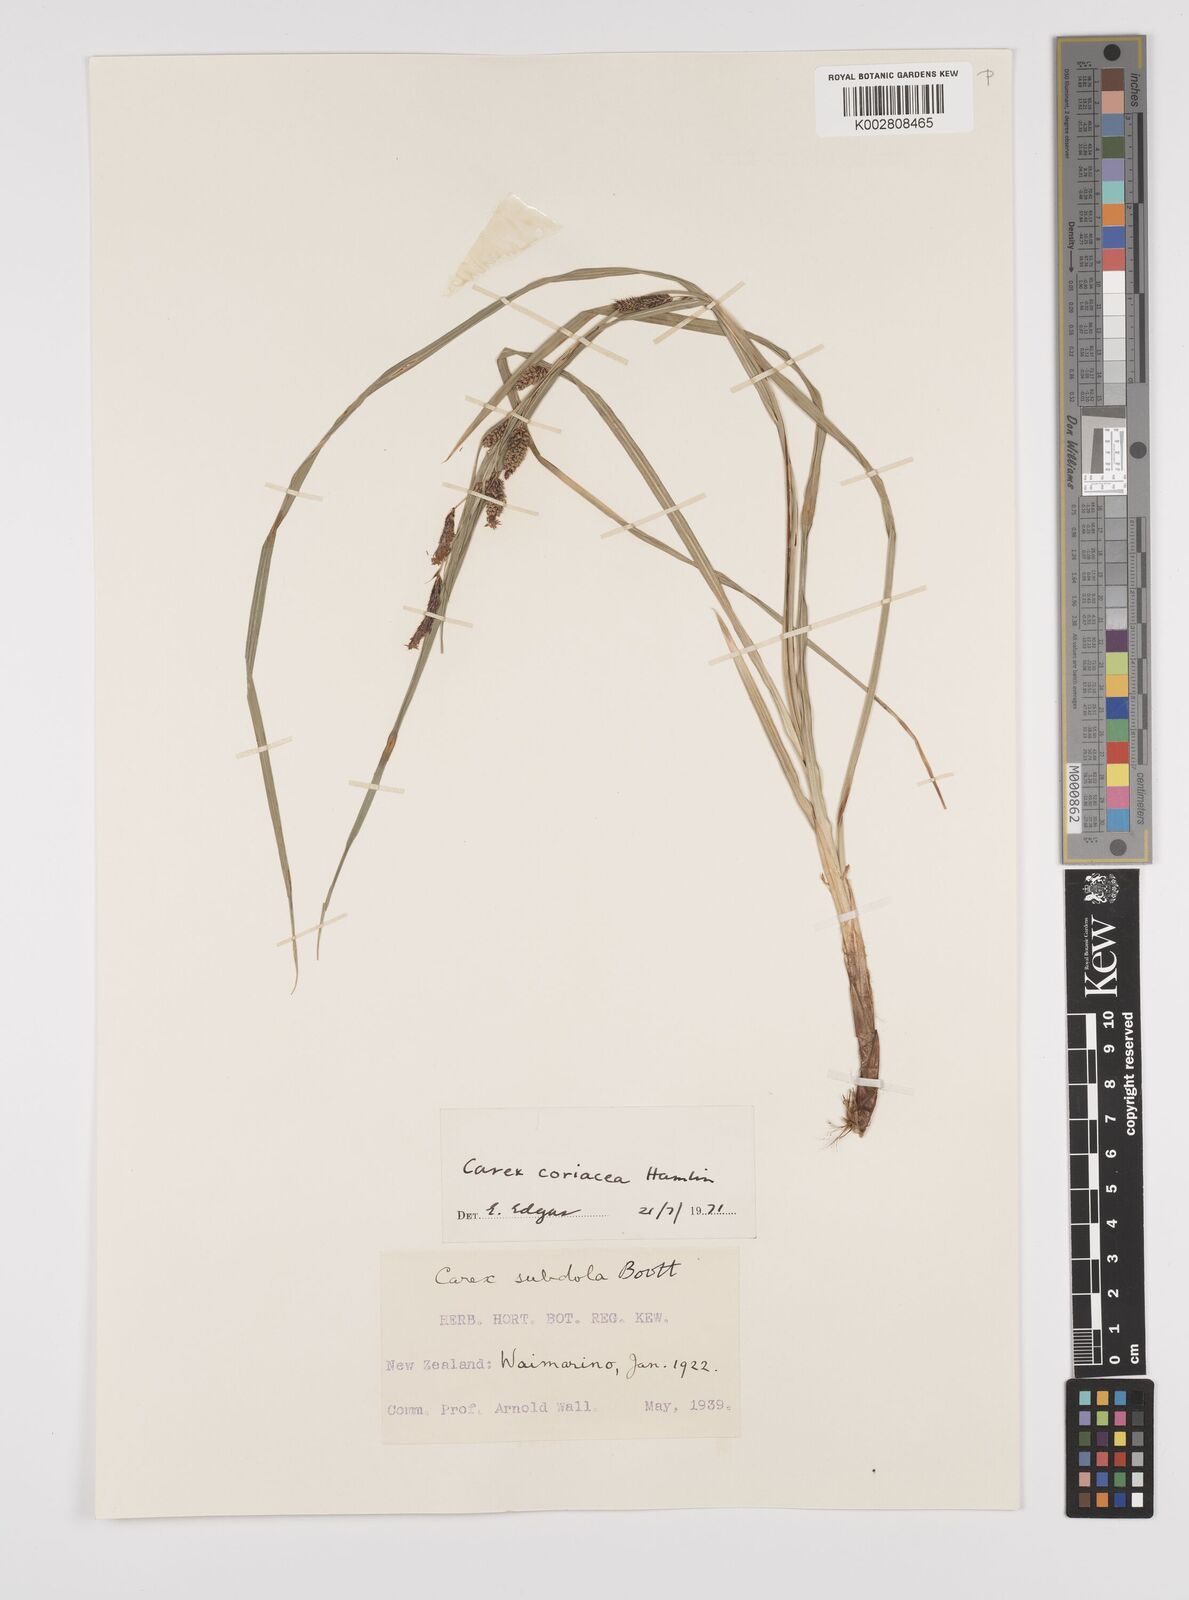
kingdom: Plantae
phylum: Tracheophyta
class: Liliopsida
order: Poales
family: Cyperaceae
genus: Carex
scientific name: Carex coriacea
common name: Rautahi
